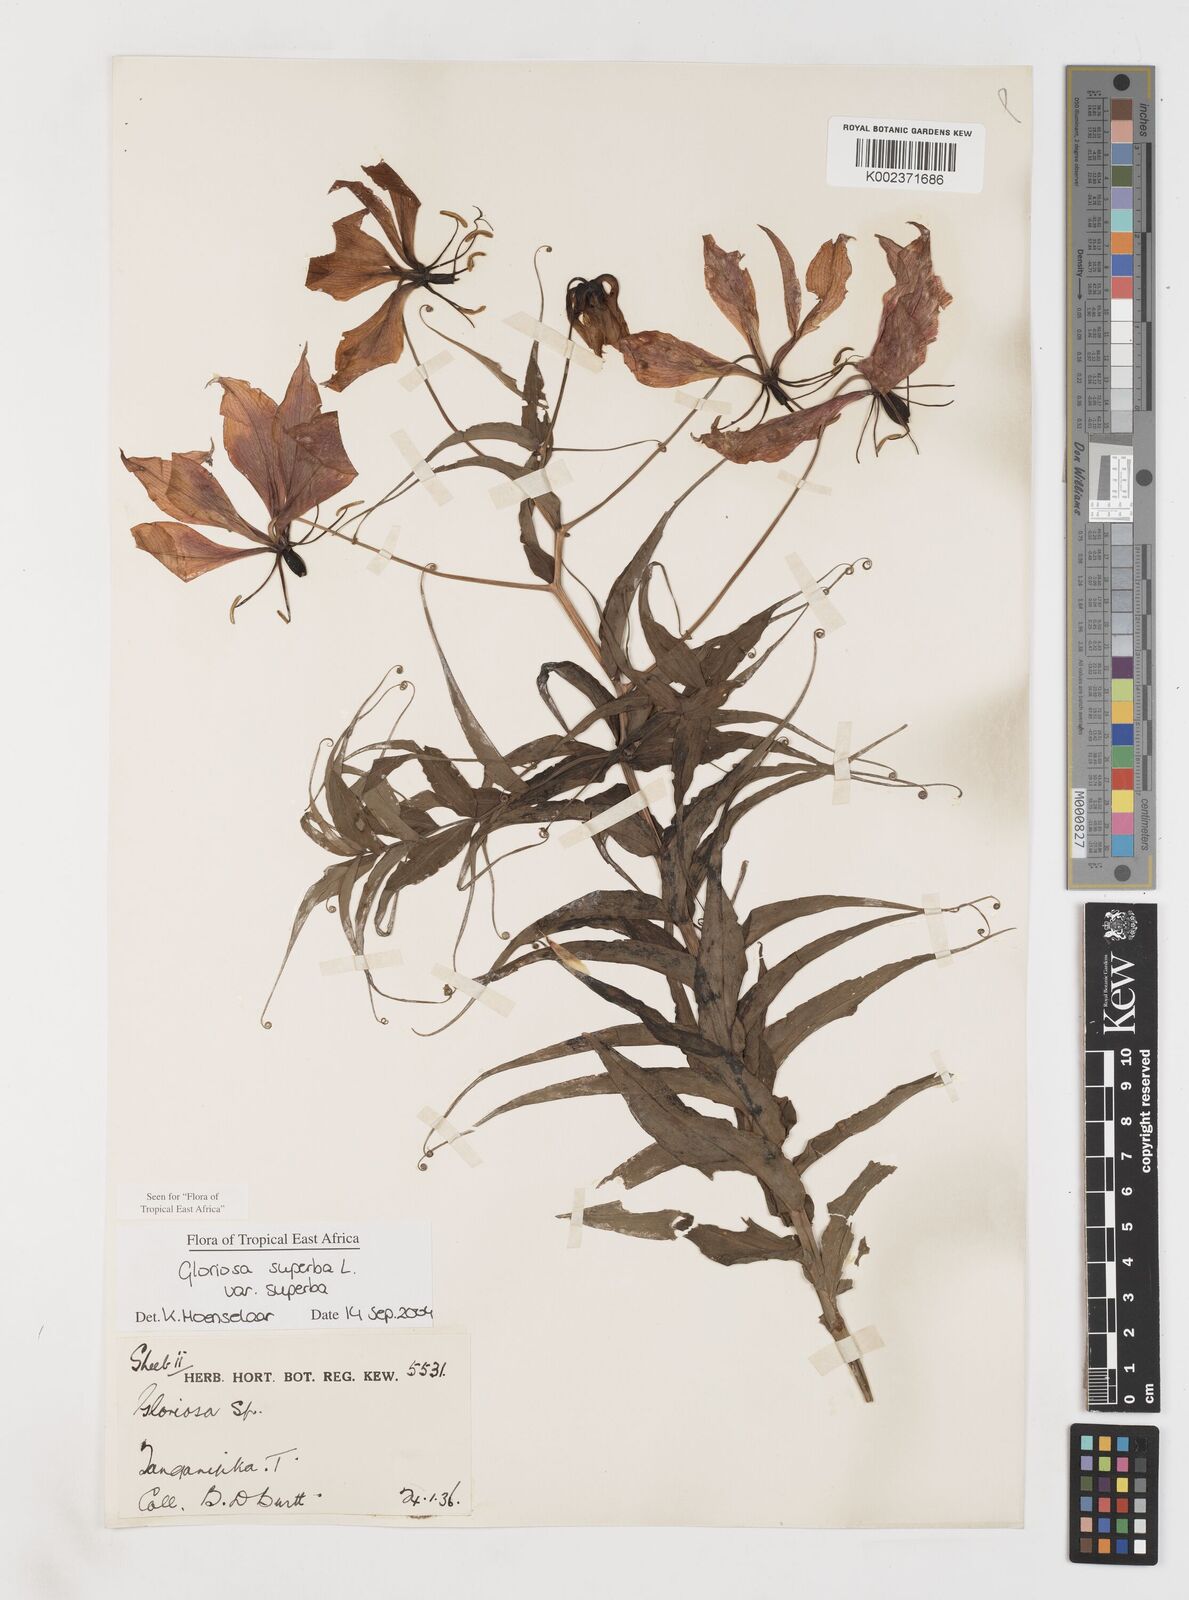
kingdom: Plantae
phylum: Tracheophyta
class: Liliopsida
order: Liliales
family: Colchicaceae
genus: Gloriosa
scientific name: Gloriosa simplex
